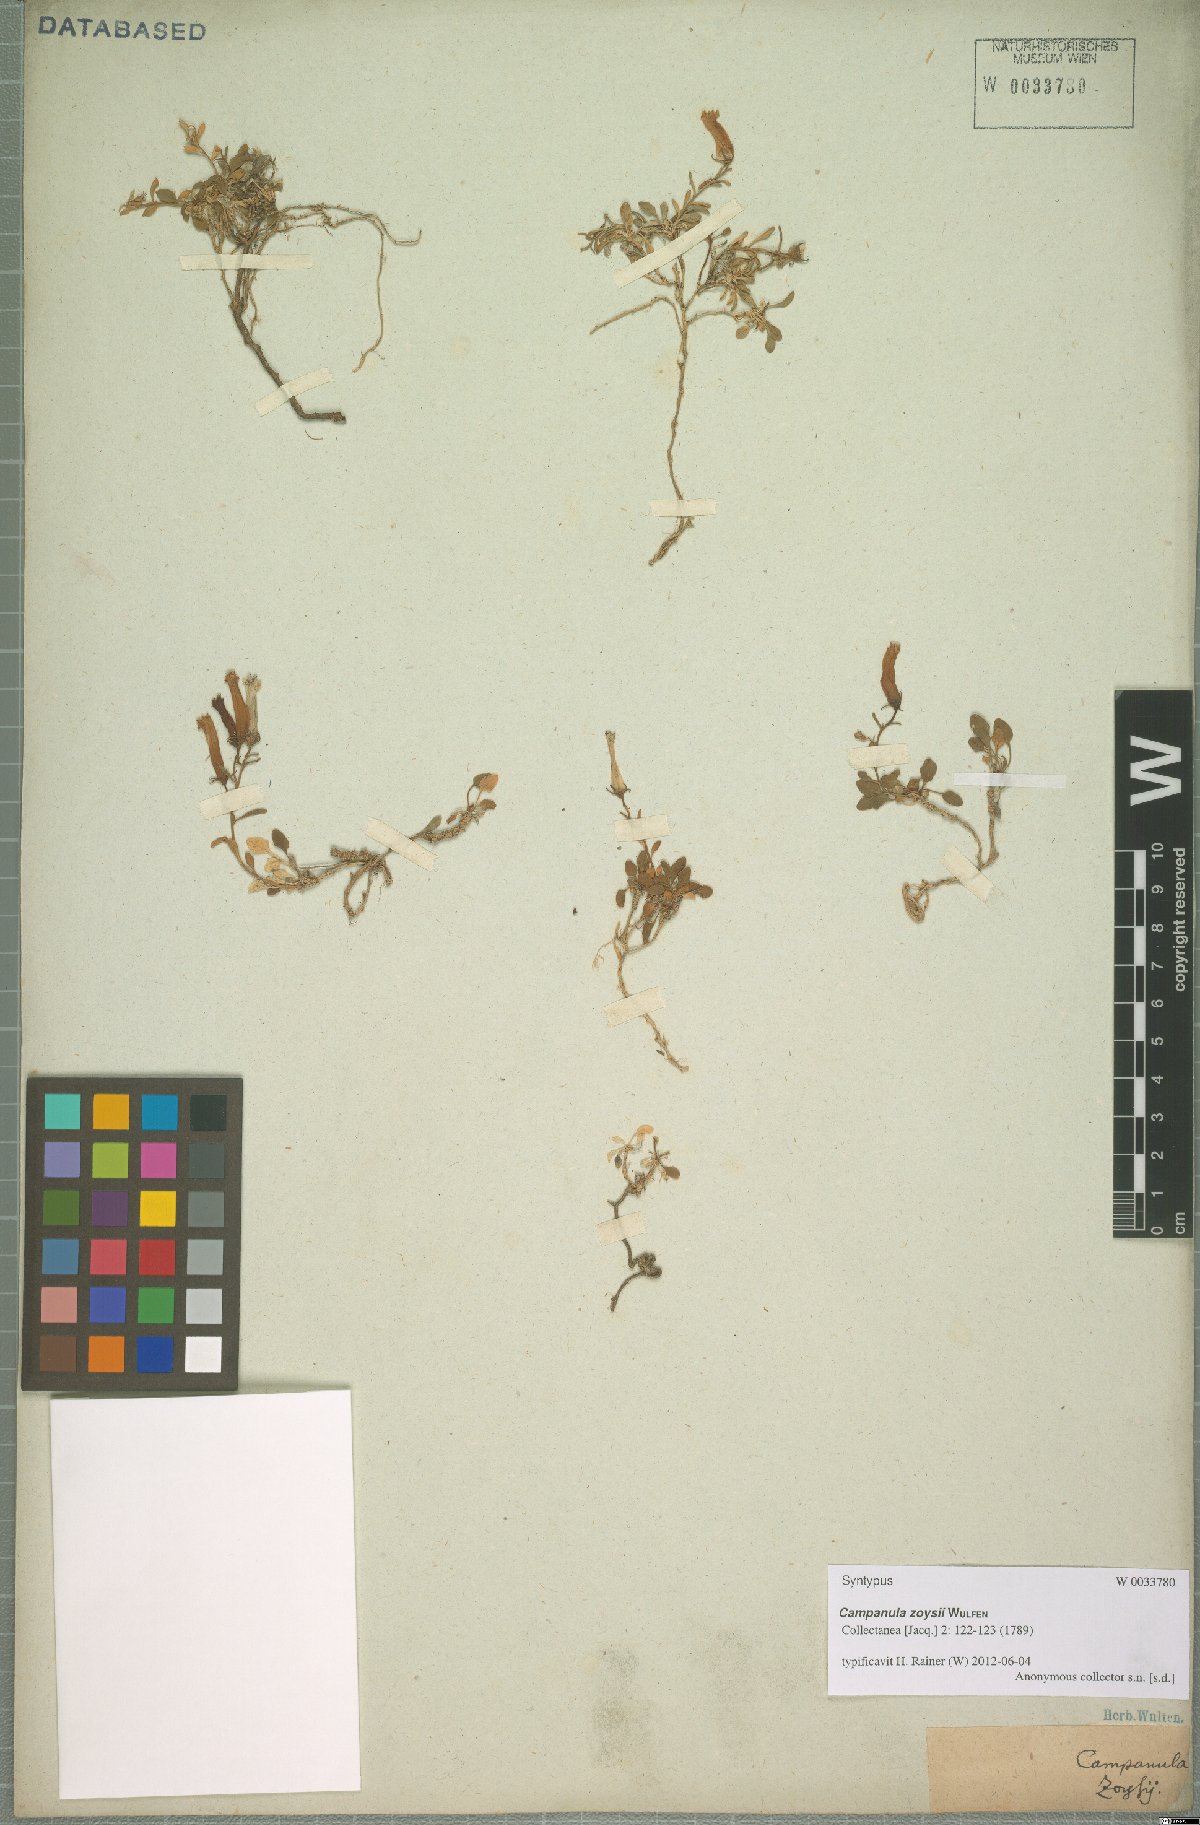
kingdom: Plantae
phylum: Tracheophyta
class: Magnoliopsida
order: Asterales
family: Campanulaceae
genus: Favratia
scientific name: Favratia zoysii
